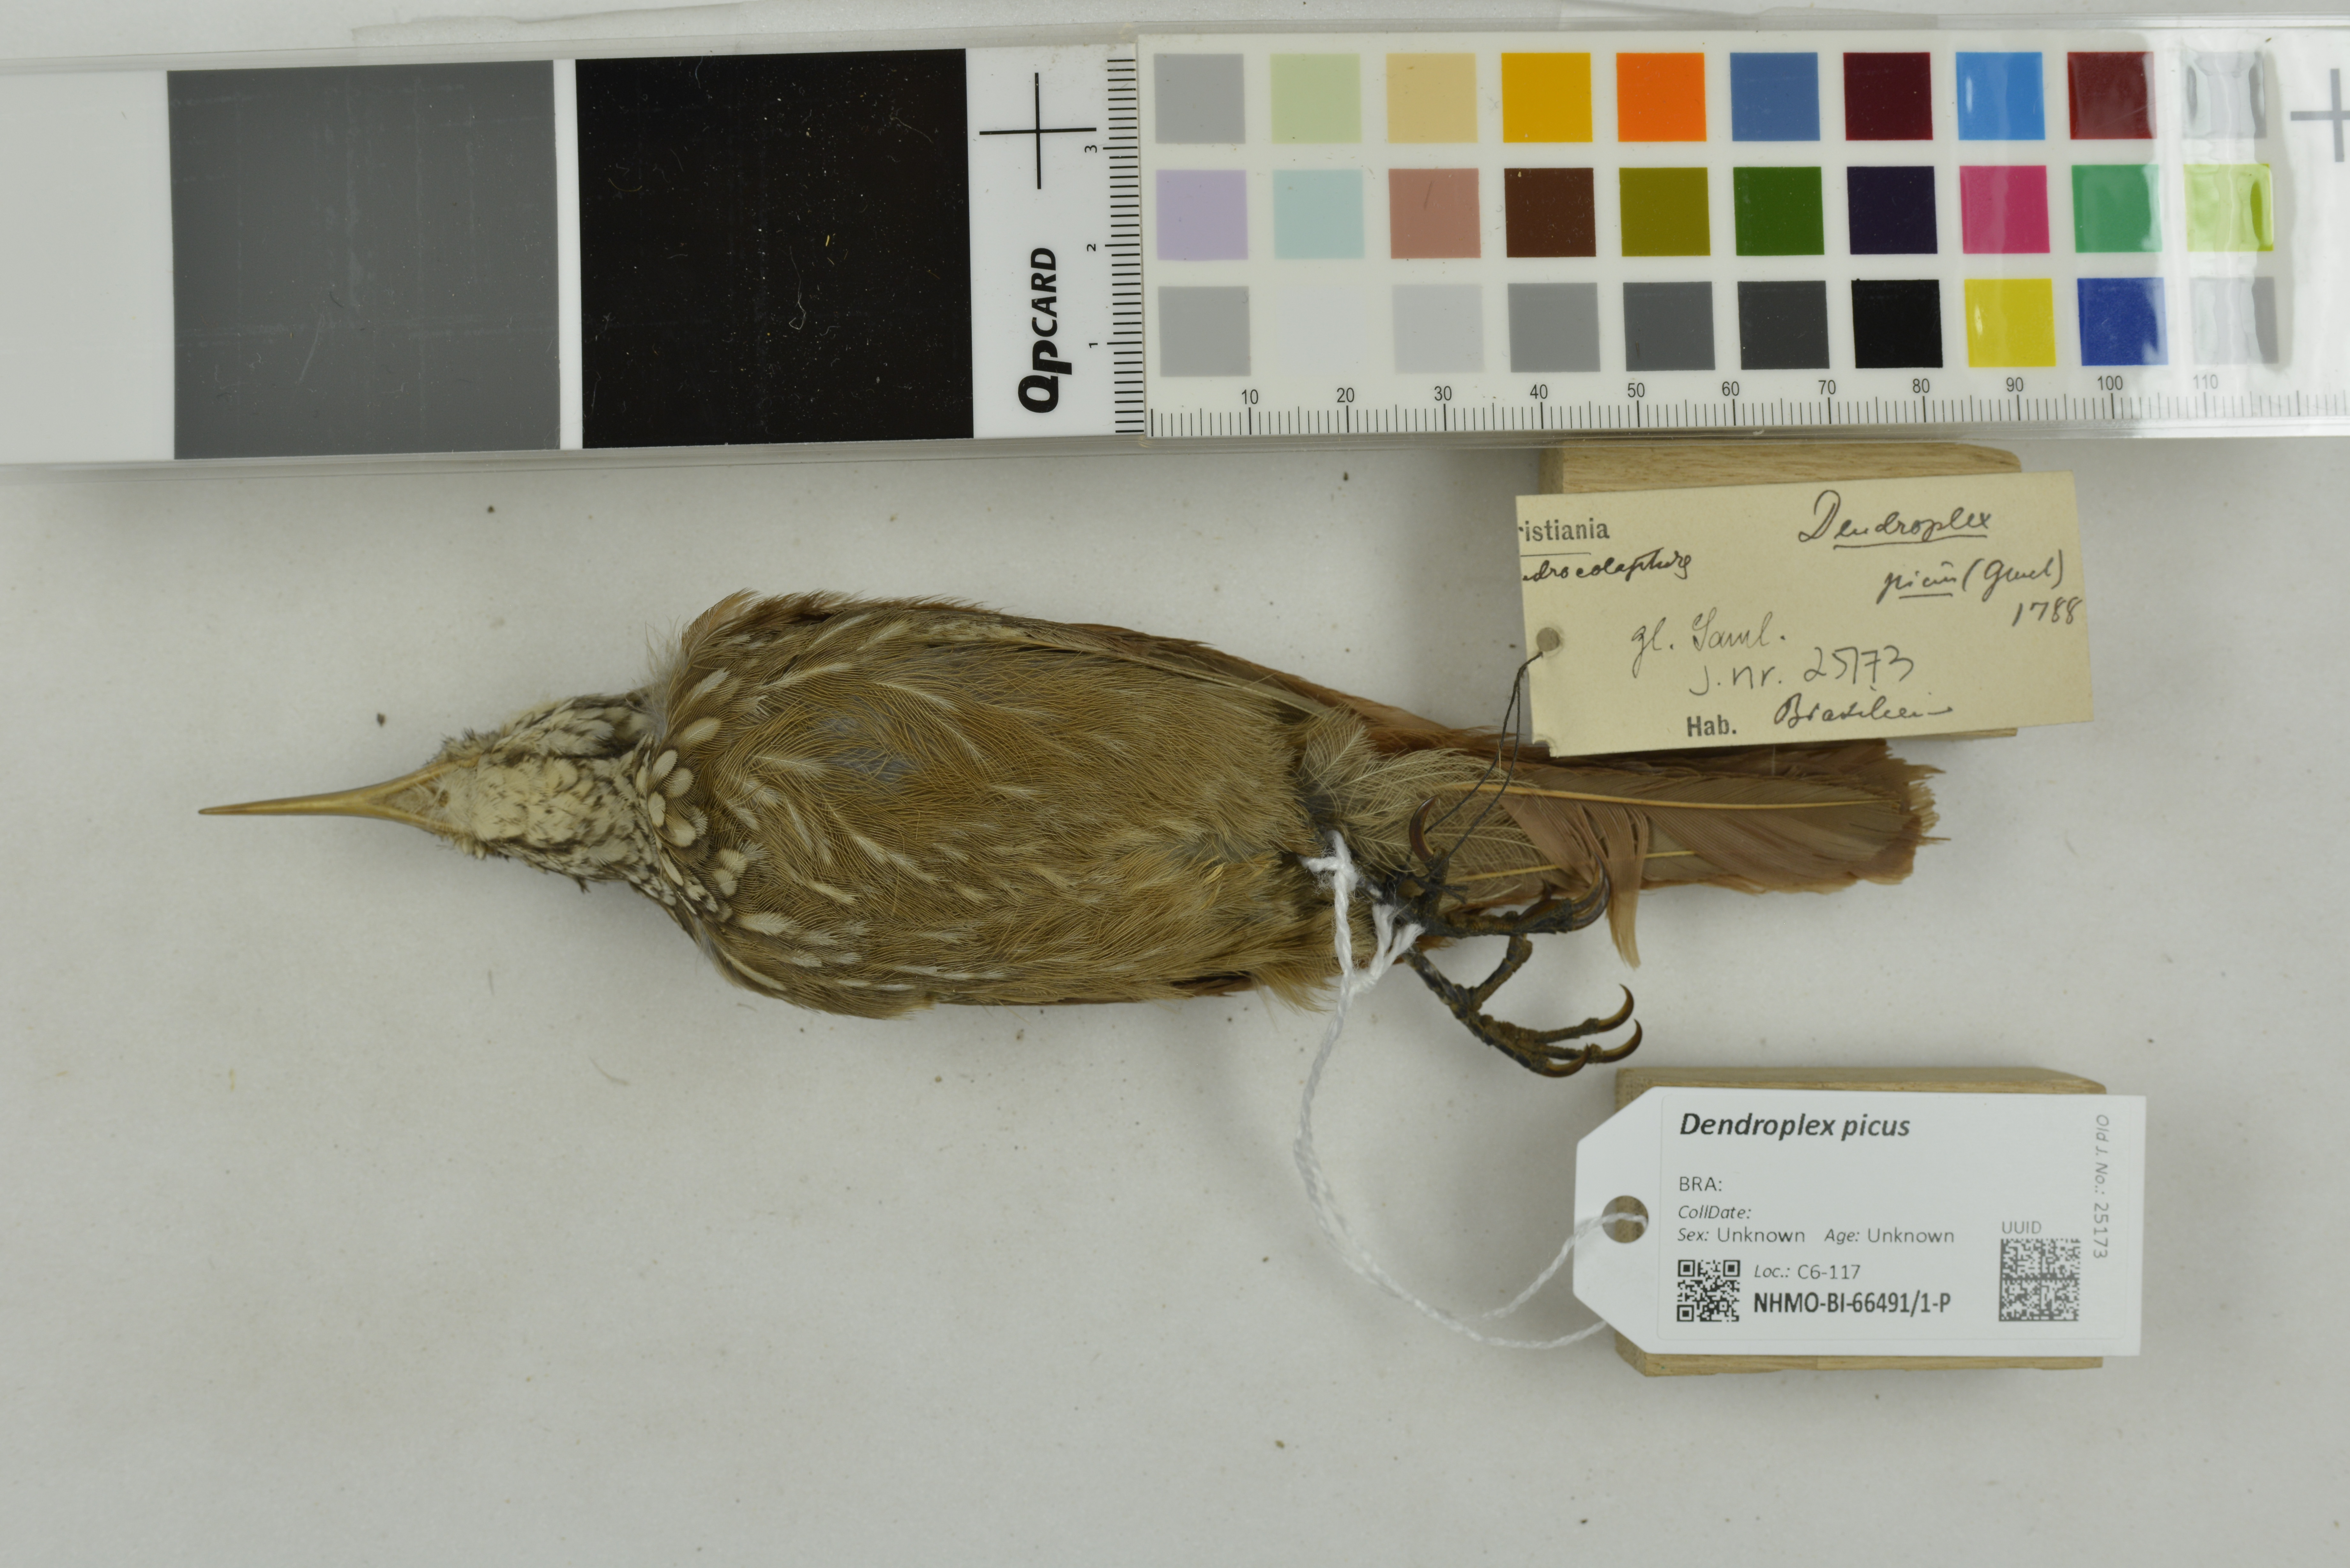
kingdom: Animalia
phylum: Chordata
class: Aves
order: Passeriformes
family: Furnariidae
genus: Xiphorhynchus
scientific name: Xiphorhynchus picus
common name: Straight-billed woodcreeper
